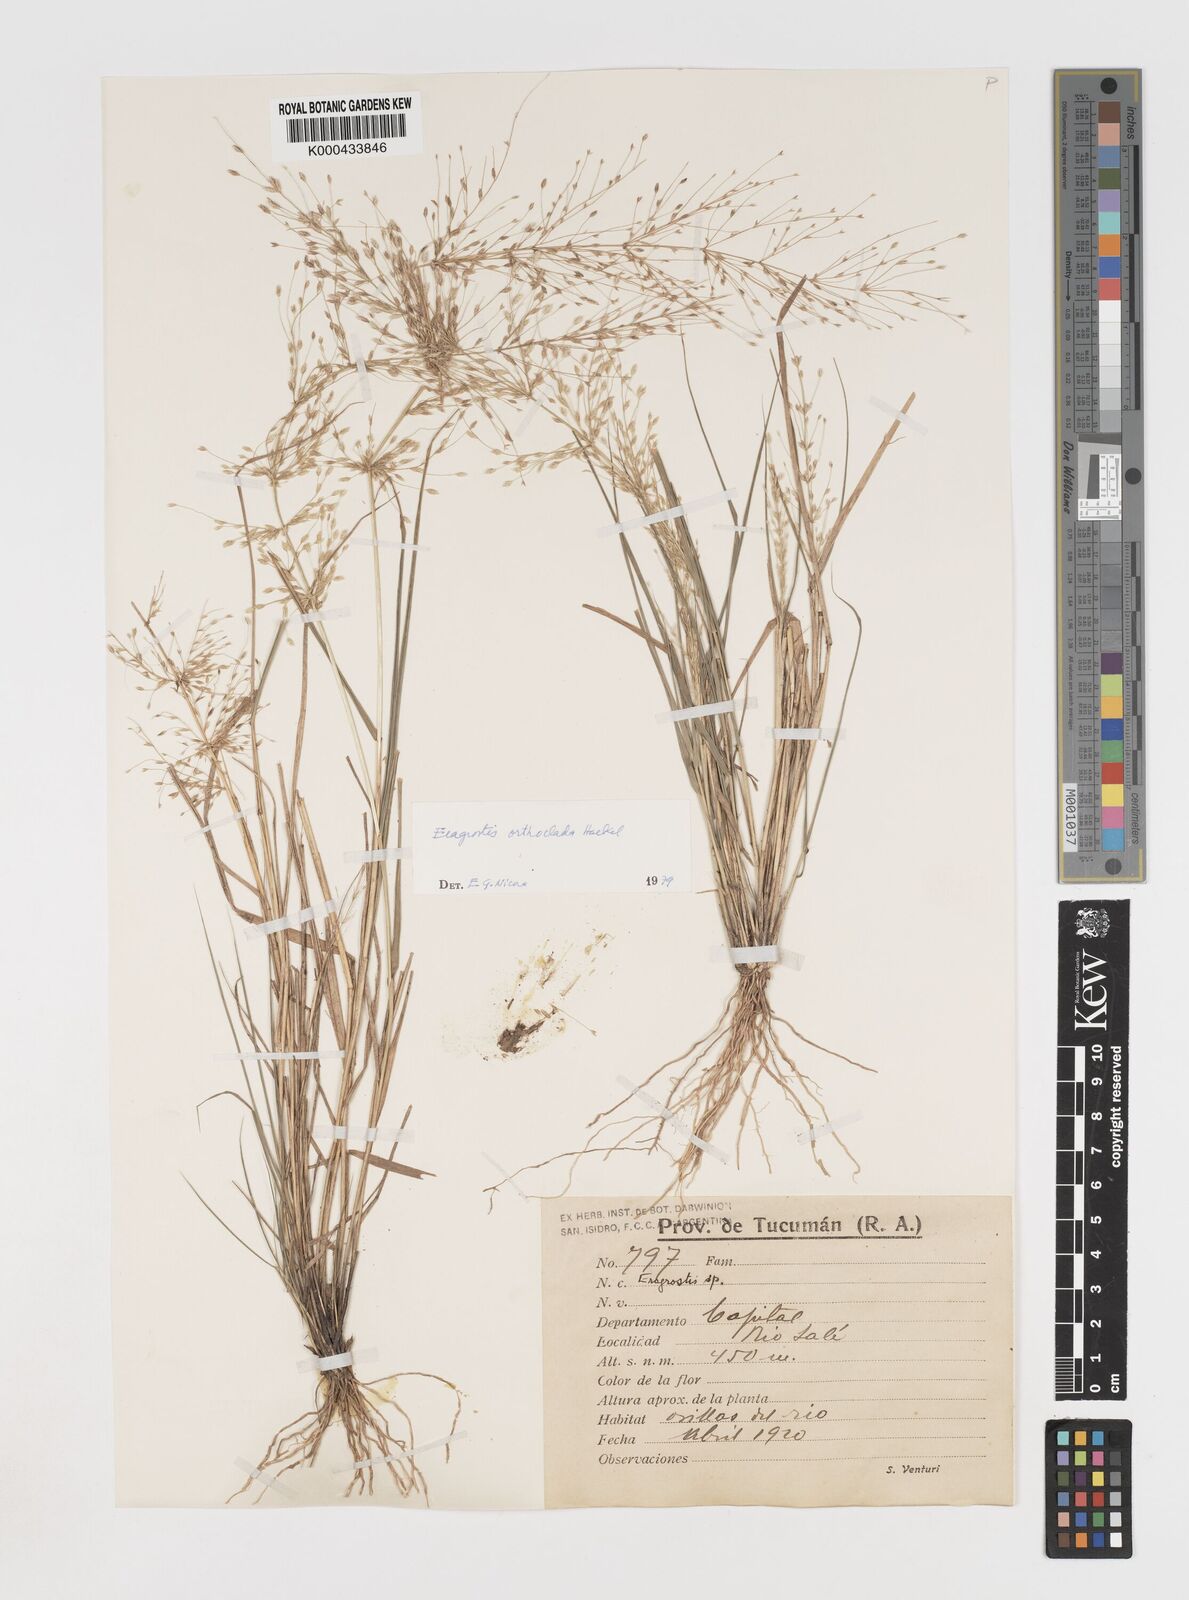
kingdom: Plantae
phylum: Tracheophyta
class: Liliopsida
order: Poales
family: Poaceae
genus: Eragrostis
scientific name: Eragrostis orthoclada
